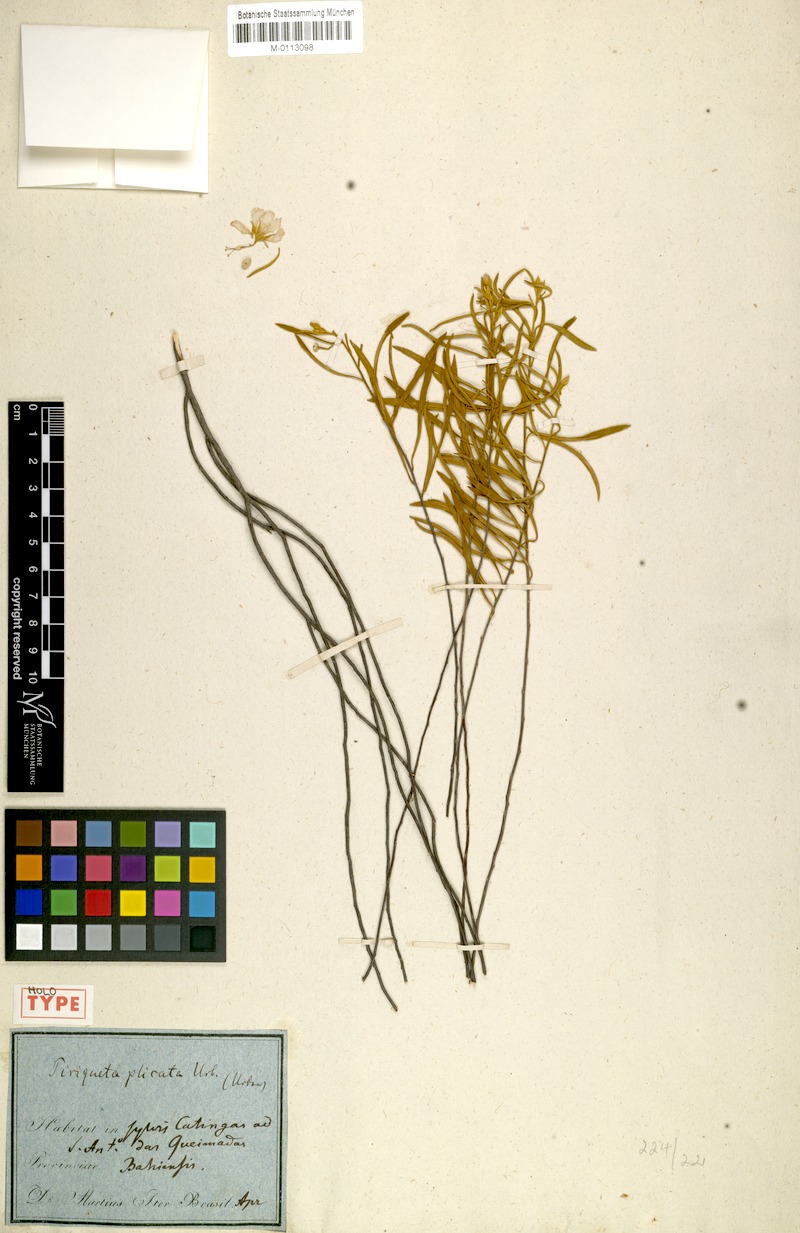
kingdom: Plantae
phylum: Tracheophyta
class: Magnoliopsida
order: Malpighiales
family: Turneraceae
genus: Piriqueta
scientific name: Piriqueta plicata
